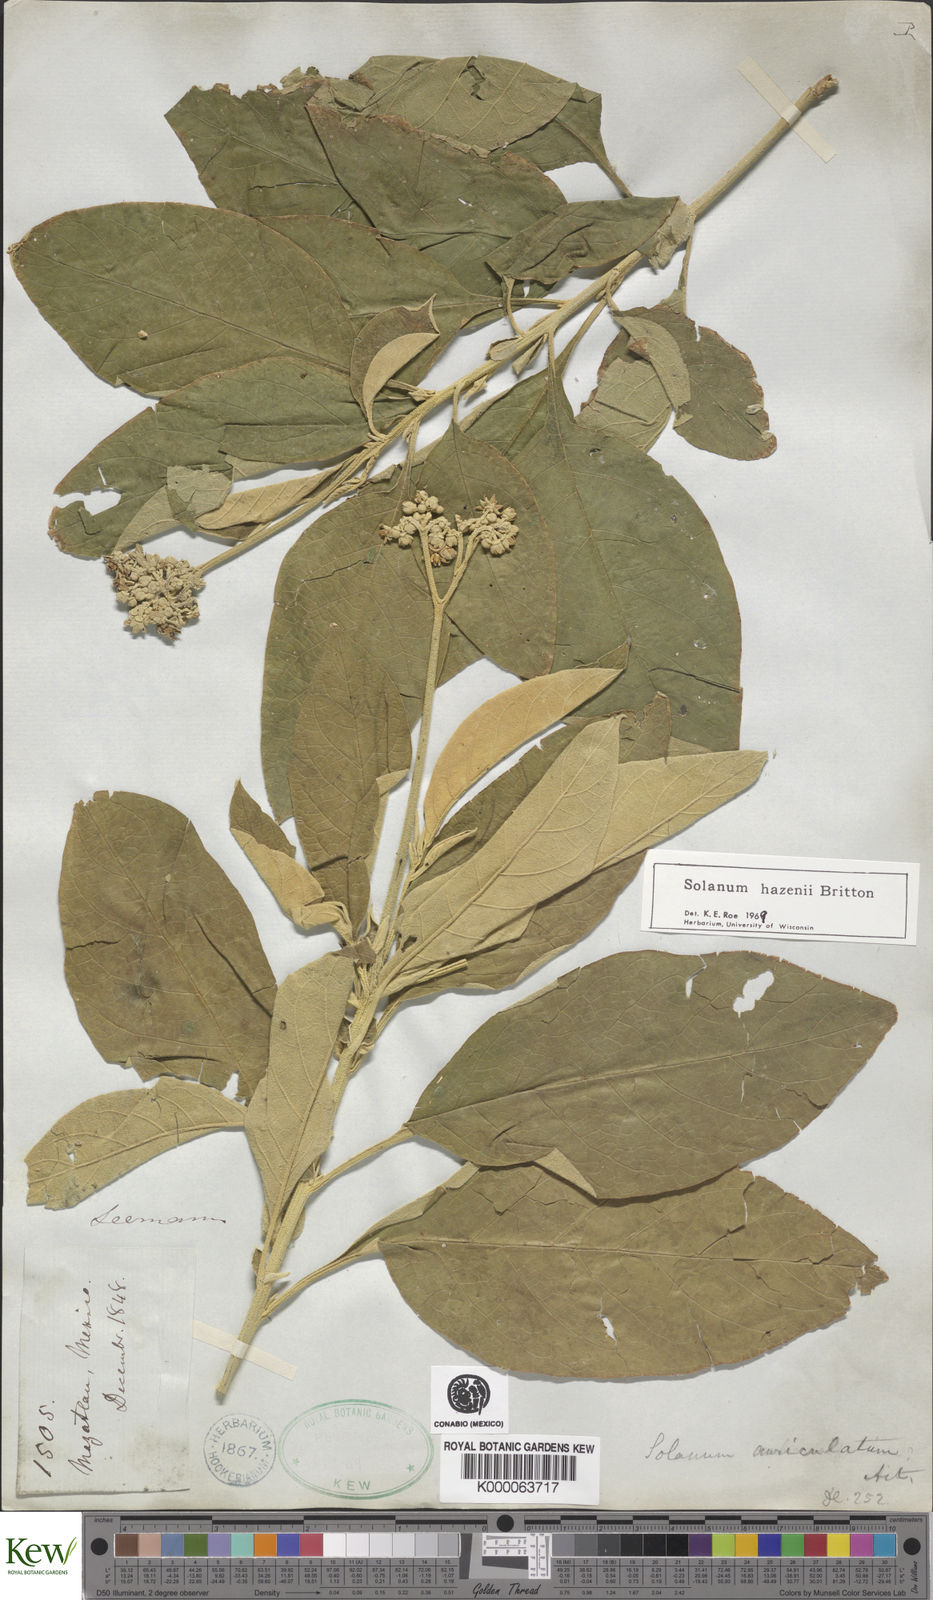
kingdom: Plantae
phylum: Tracheophyta
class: Magnoliopsida
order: Solanales
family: Solanaceae
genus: Solanum
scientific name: Solanum hazenii
